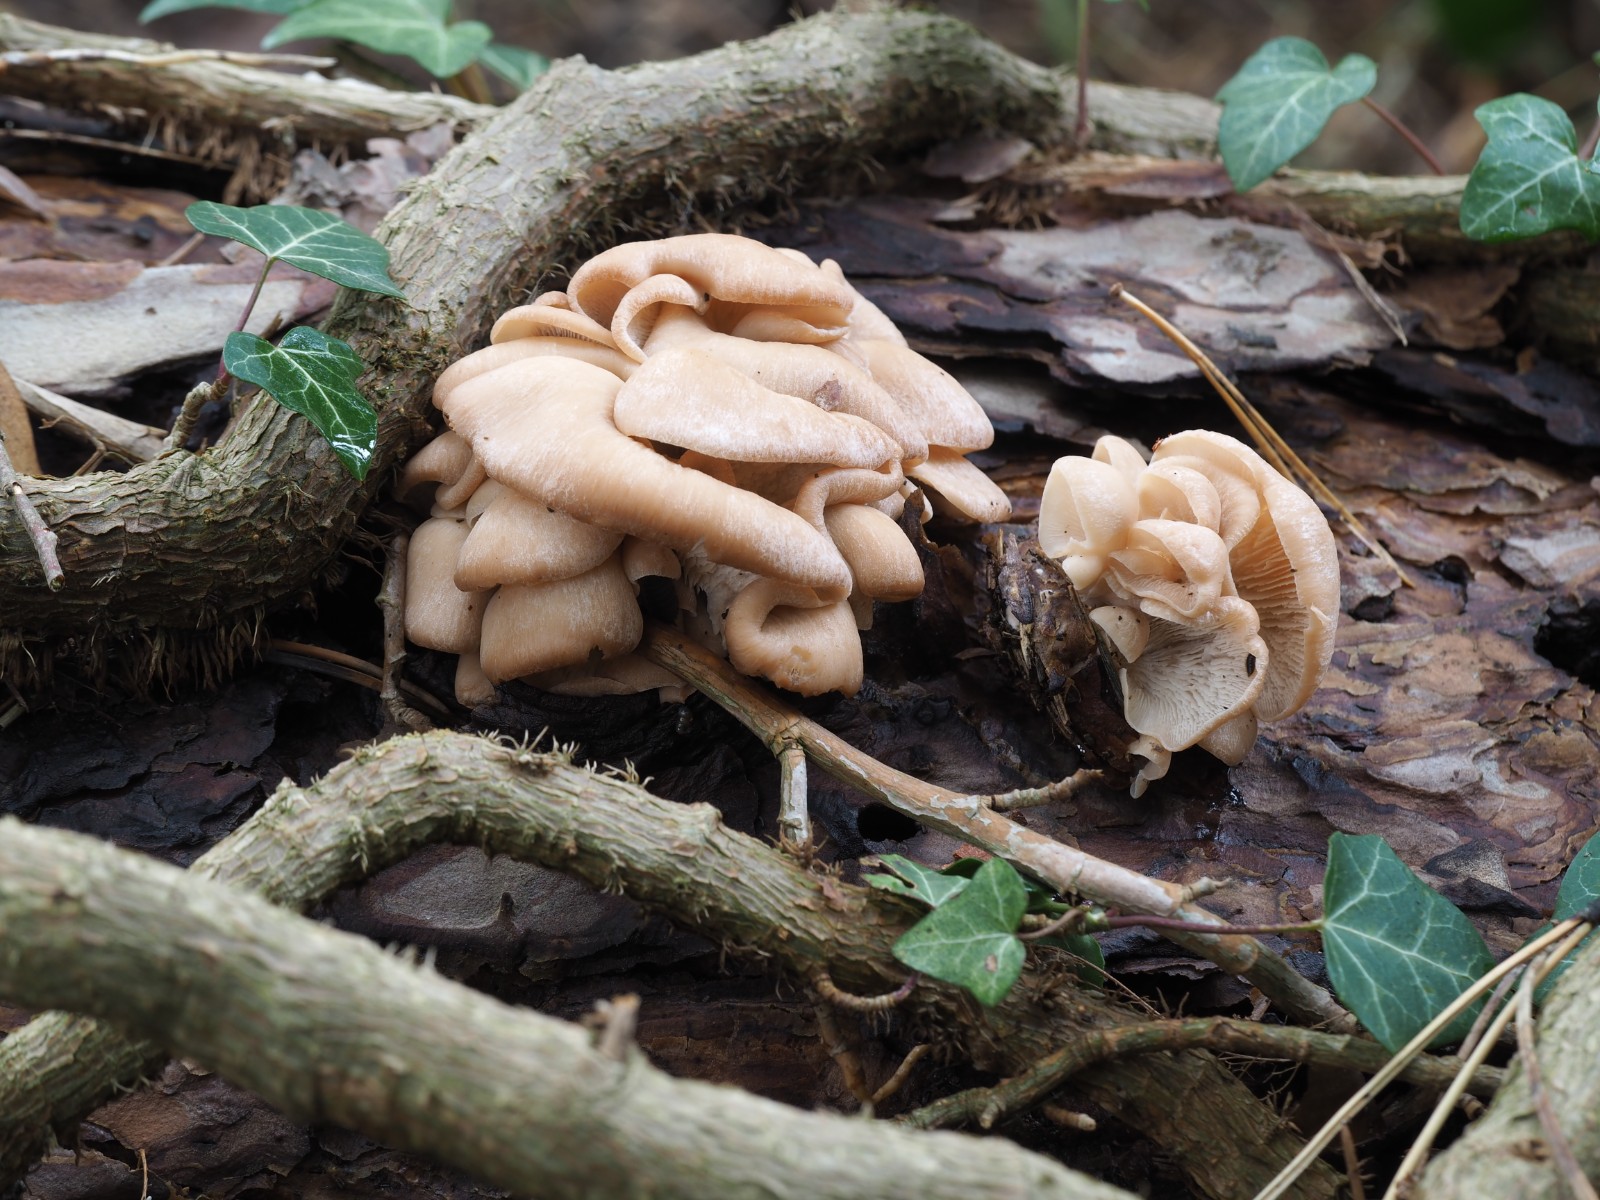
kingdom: Fungi
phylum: Basidiomycota
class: Agaricomycetes
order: Russulales
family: Auriscalpiaceae
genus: Lentinellus
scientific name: Lentinellus ursinus
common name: børstehåret savbladhat
